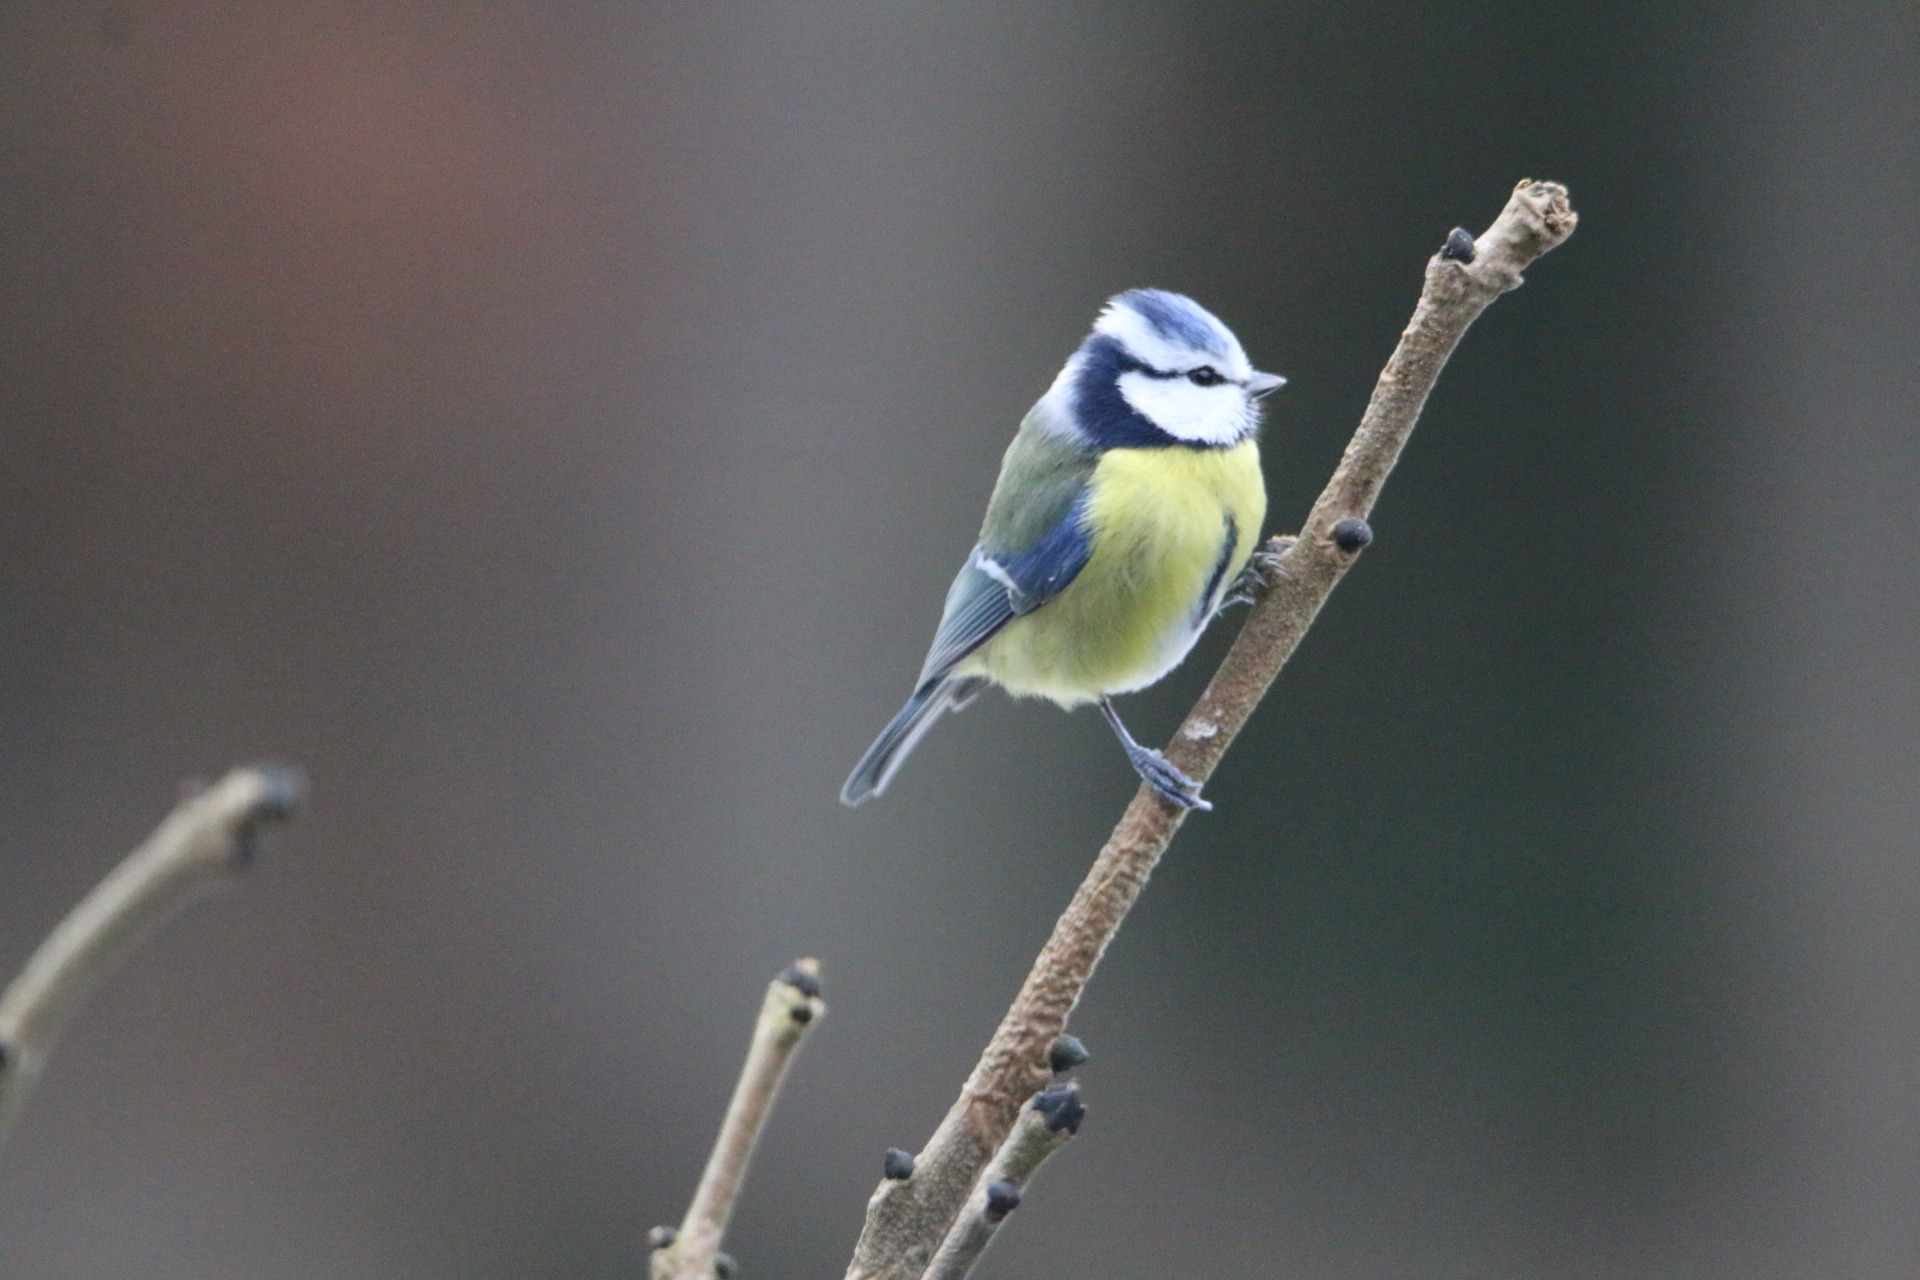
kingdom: Animalia
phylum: Chordata
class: Aves
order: Passeriformes
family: Paridae
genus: Cyanistes
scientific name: Cyanistes caeruleus
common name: Blåmejse
